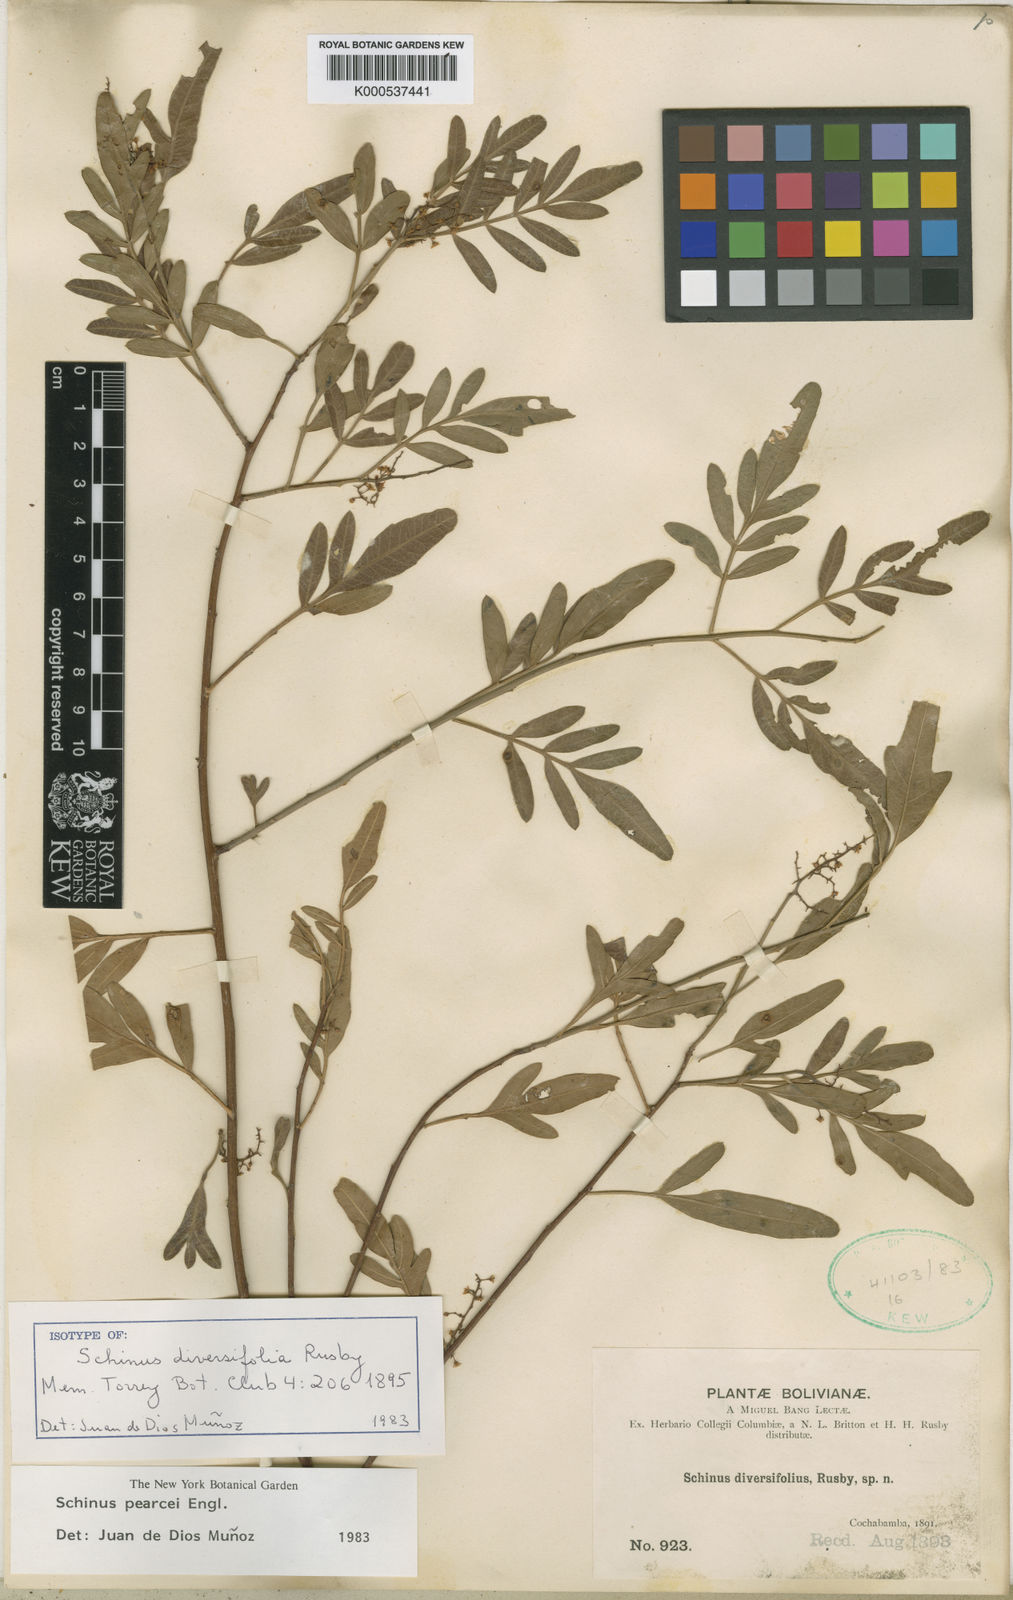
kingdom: Plantae
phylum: Tracheophyta
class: Magnoliopsida
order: Sapindales
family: Anacardiaceae
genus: Schinus
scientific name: Schinus pearcei
